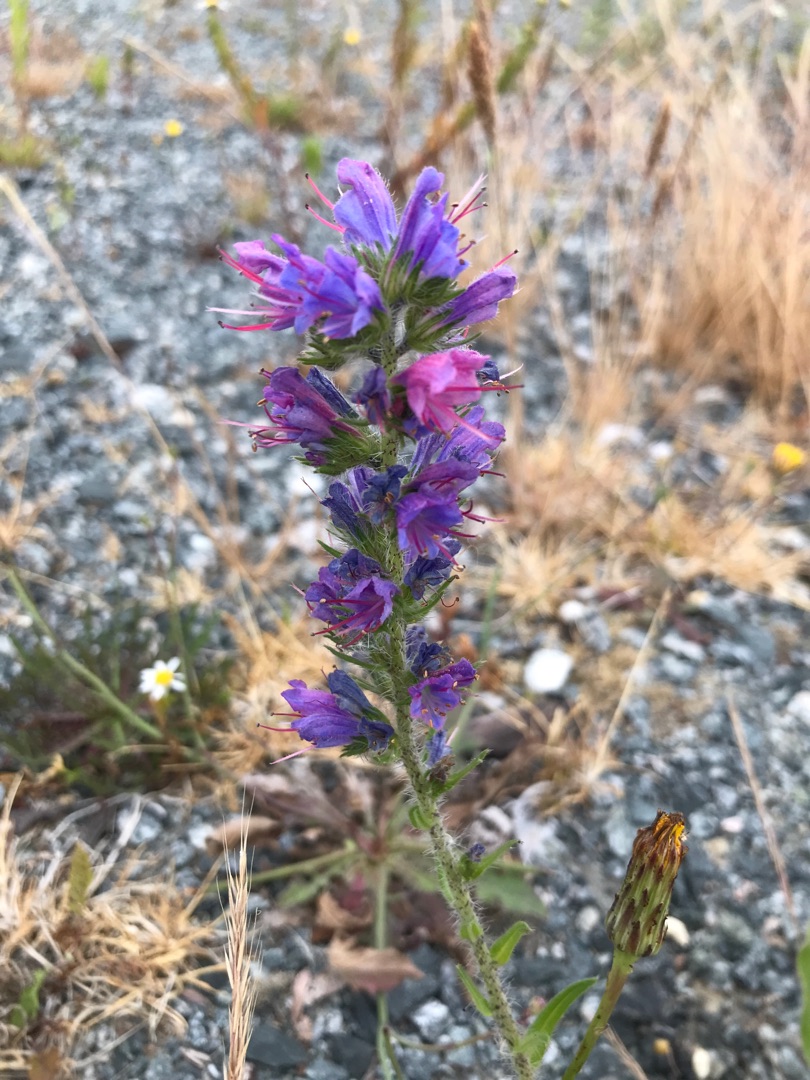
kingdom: Plantae
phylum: Tracheophyta
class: Magnoliopsida
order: Boraginales
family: Boraginaceae
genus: Echium
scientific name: Echium vulgare
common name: Slangehoved
